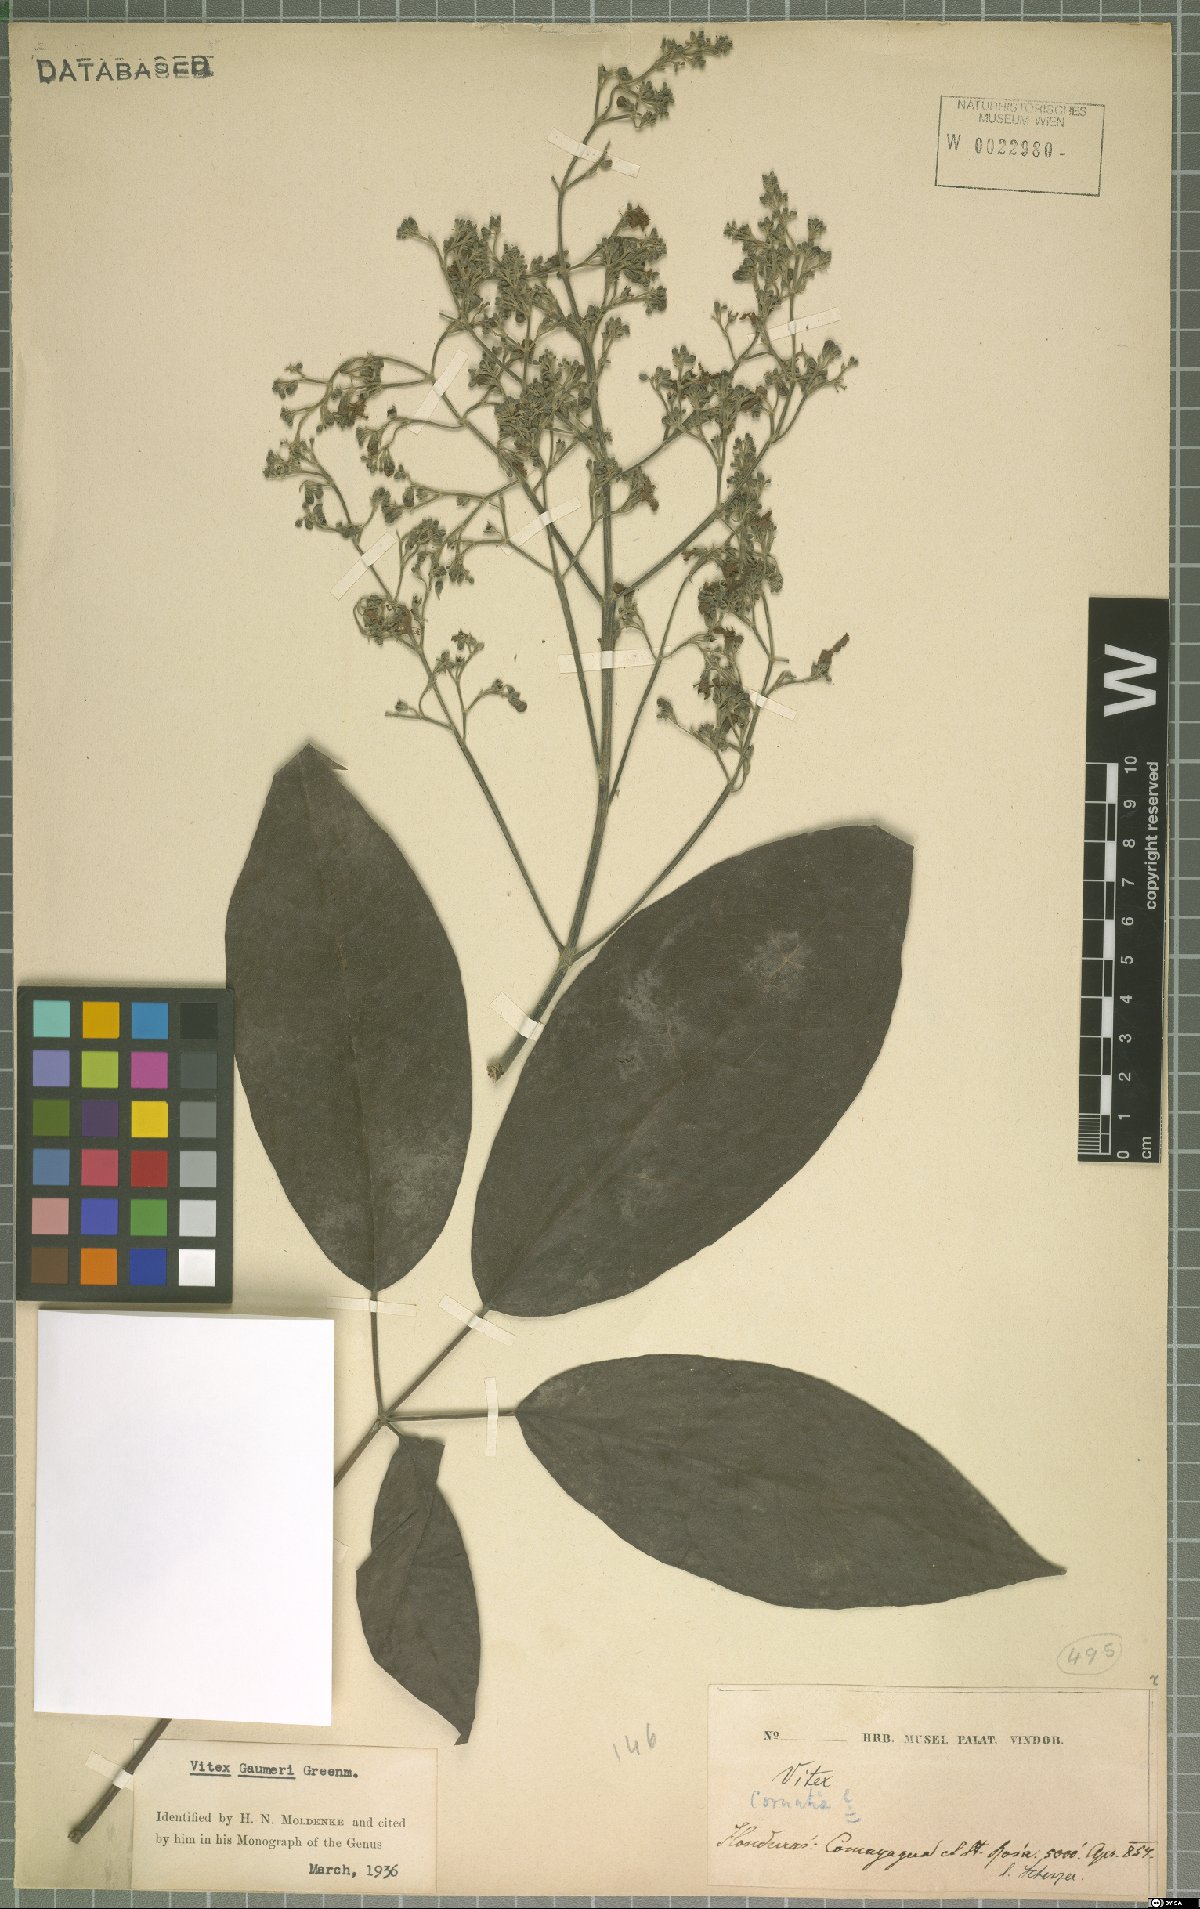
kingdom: Plantae
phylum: Tracheophyta
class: Magnoliopsida
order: Lamiales
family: Lamiaceae
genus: Vitex
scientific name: Vitex gaumeri
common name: Fiddlewood
